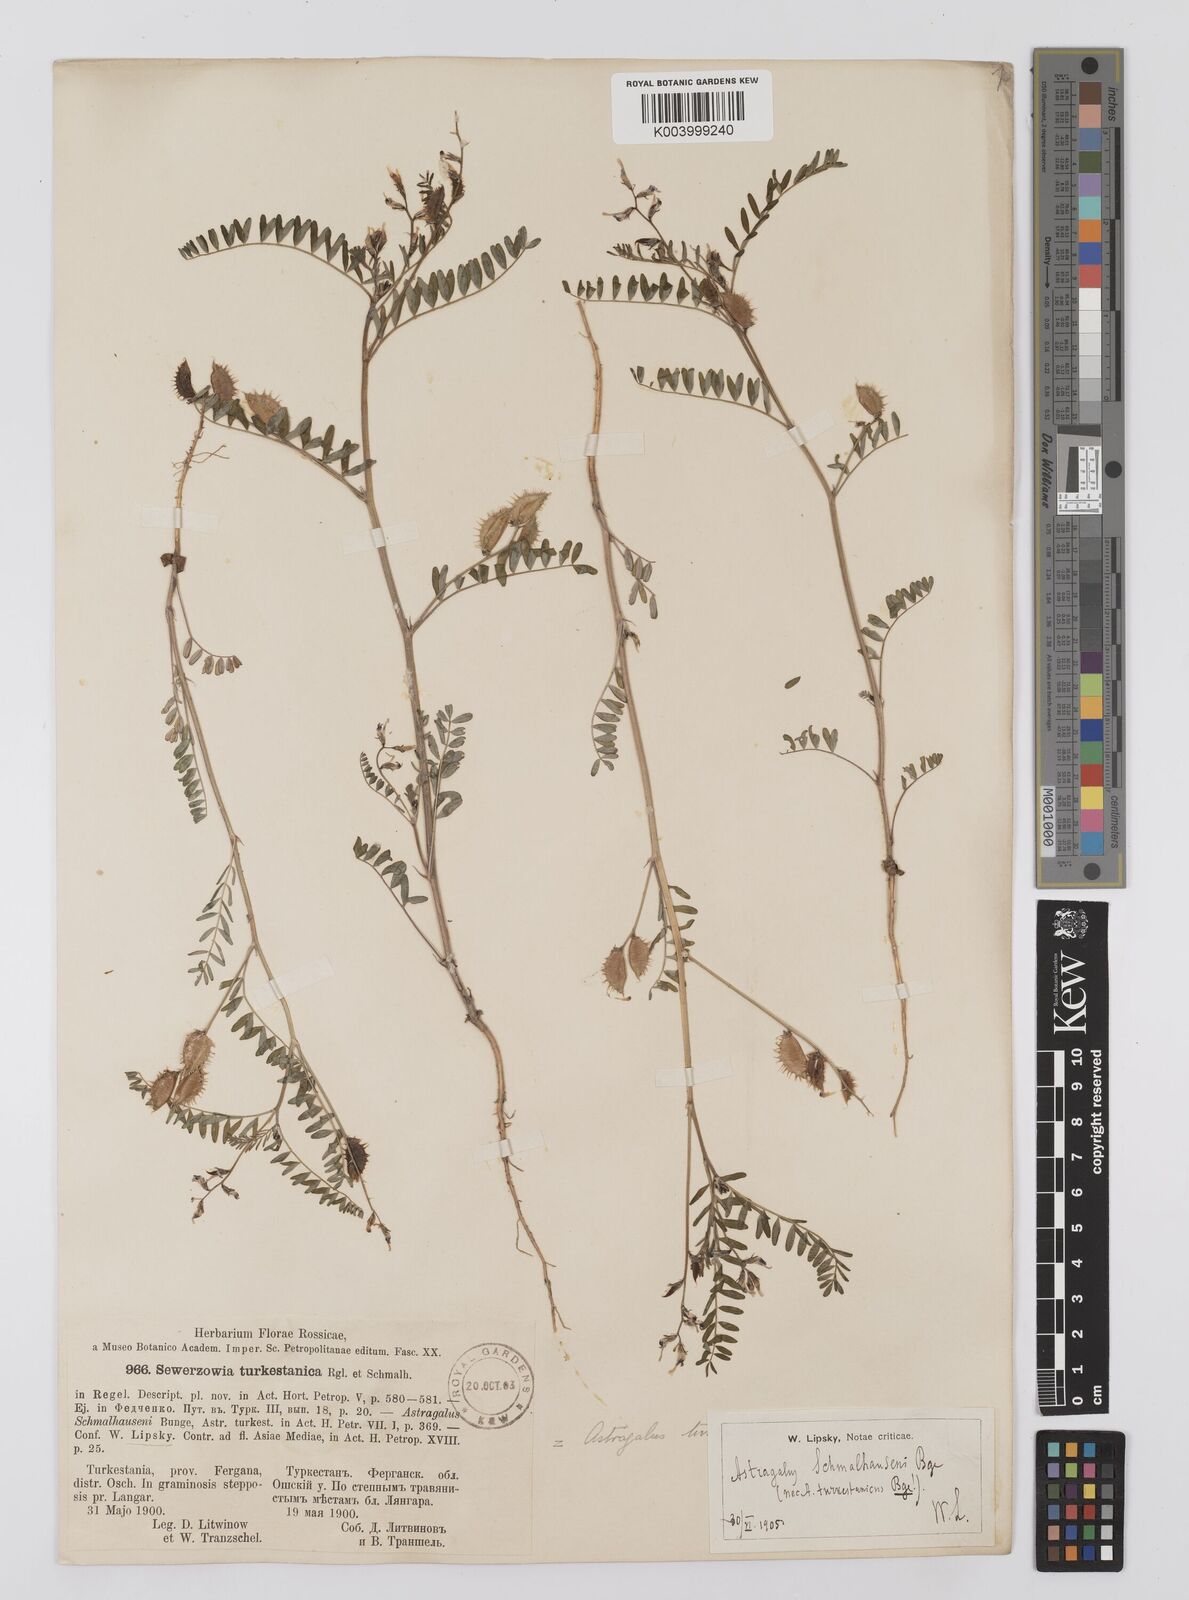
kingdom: Plantae
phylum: Tracheophyta
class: Magnoliopsida
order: Fabales
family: Fabaceae
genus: Astragalus
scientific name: Astragalus schmalhausenii
